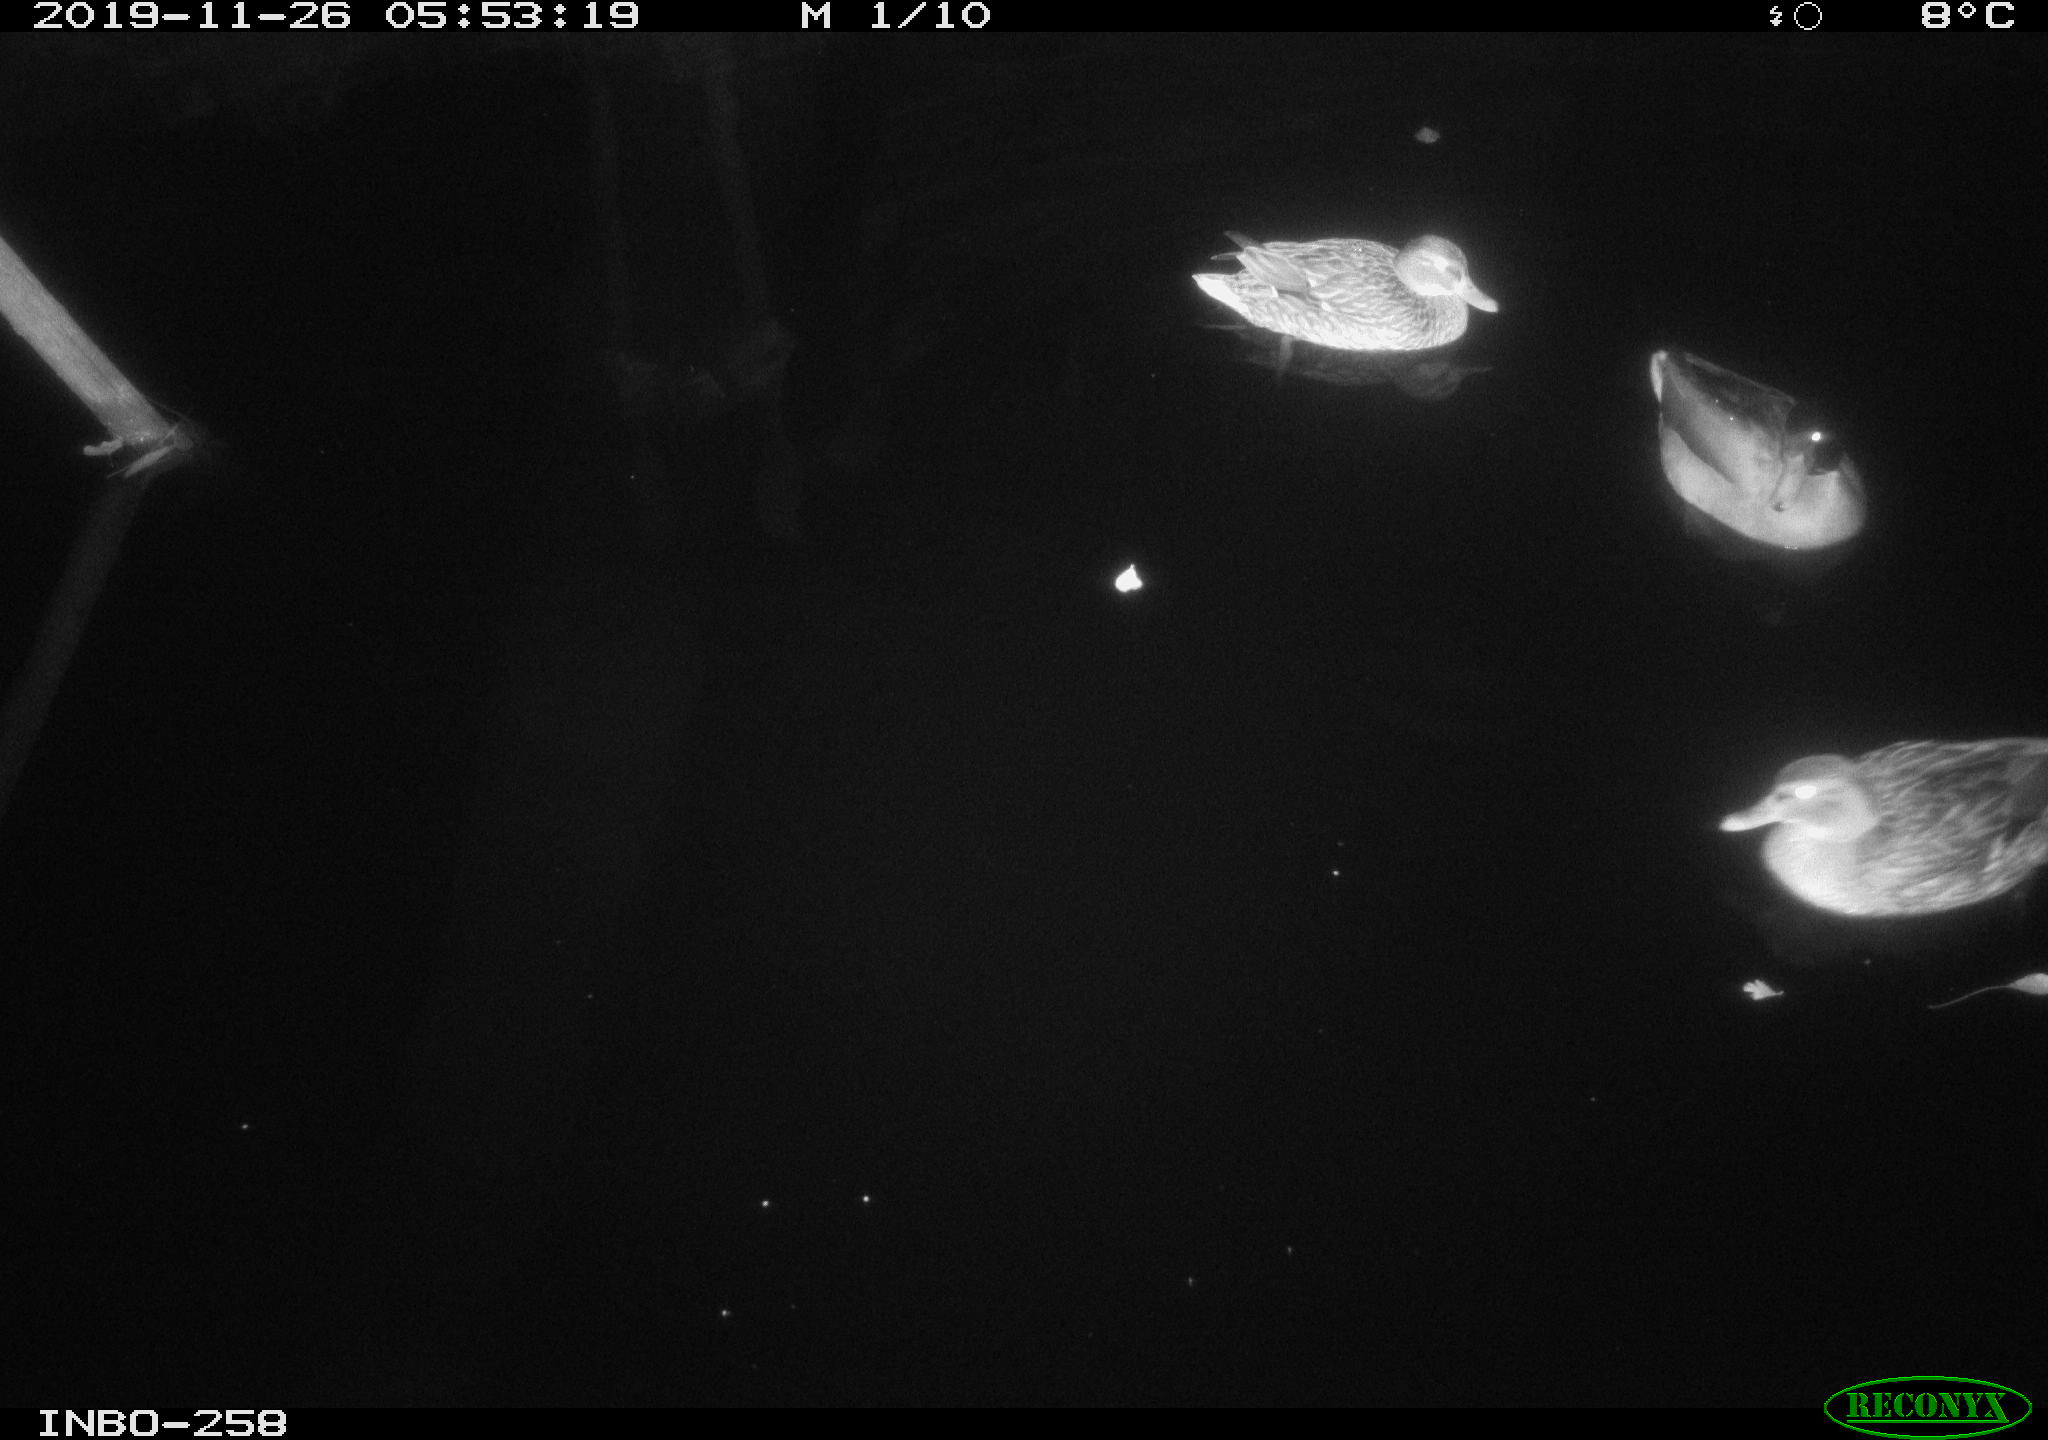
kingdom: Animalia
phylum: Chordata
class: Aves
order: Anseriformes
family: Anatidae
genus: Anas
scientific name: Anas platyrhynchos
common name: Mallard
